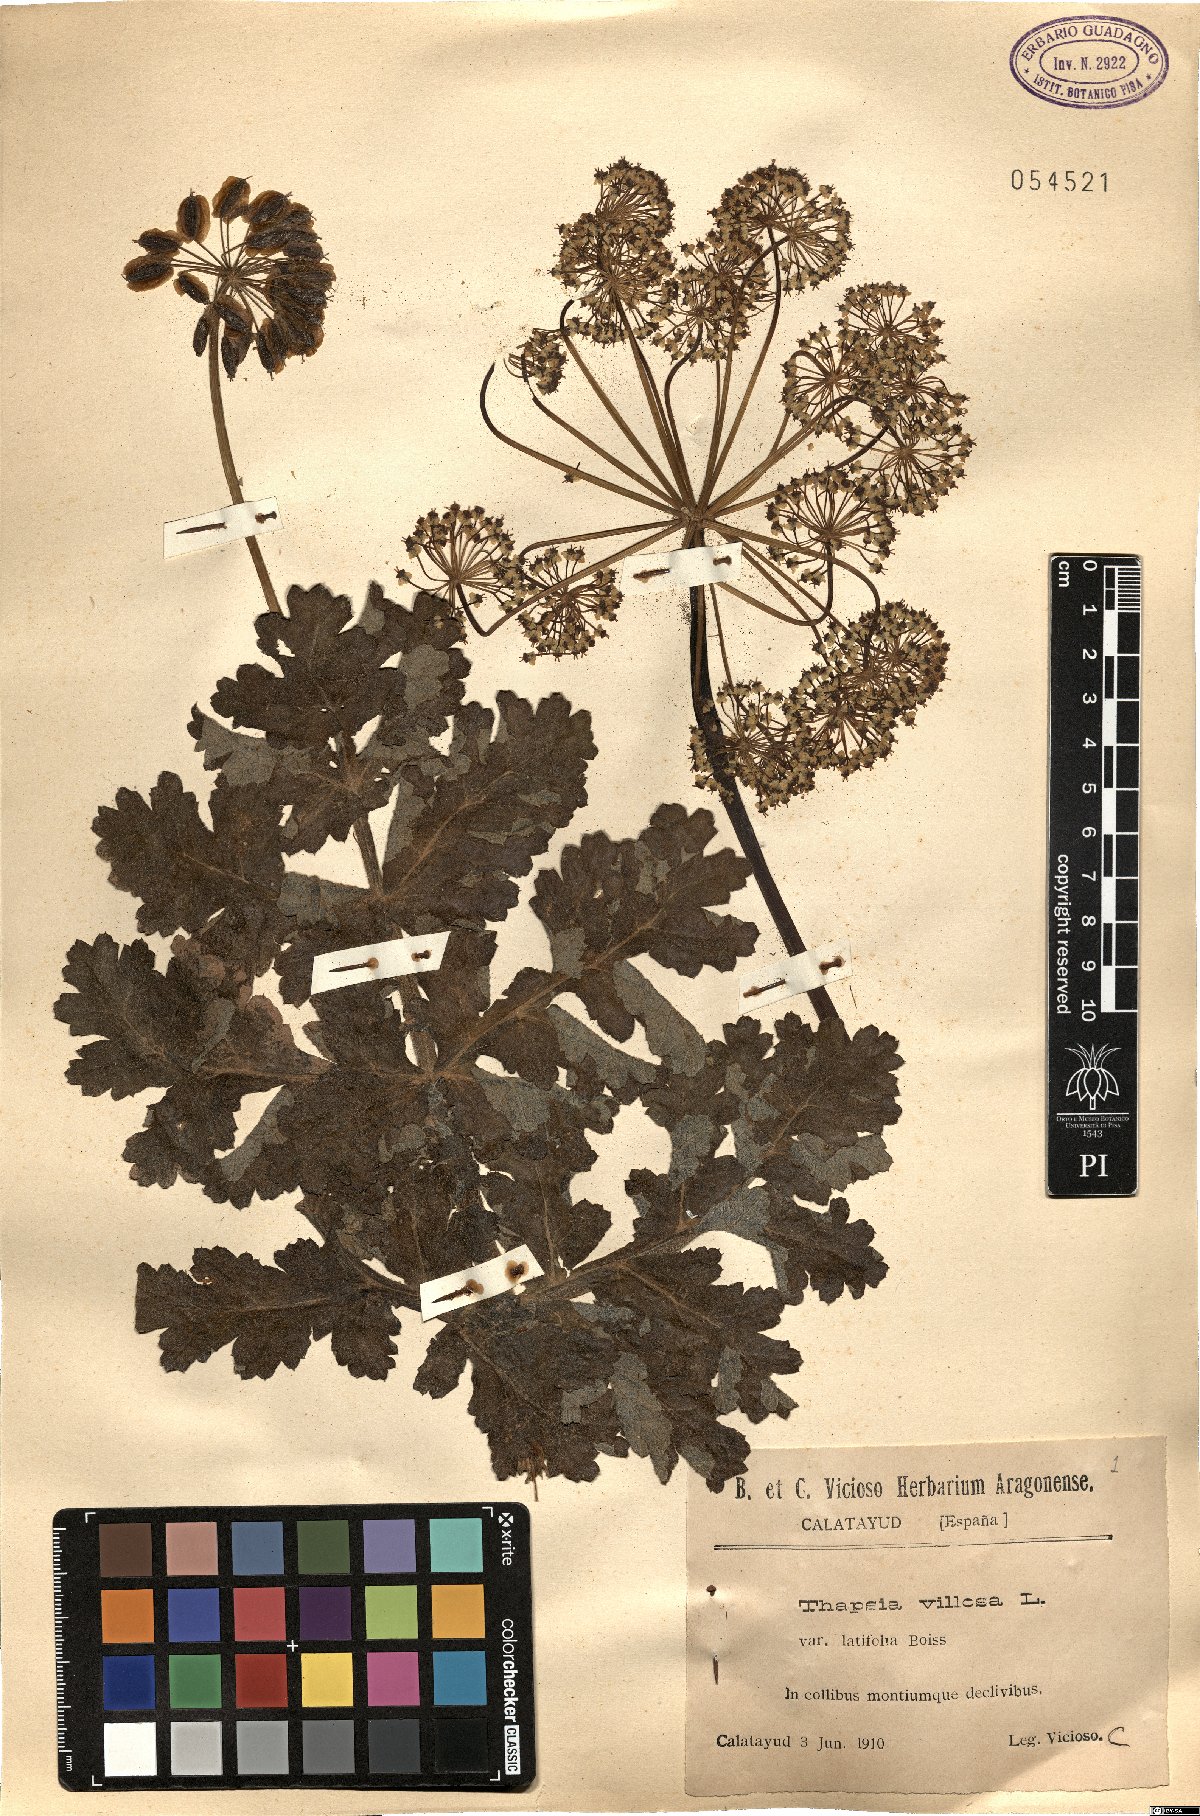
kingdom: Plantae
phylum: Tracheophyta
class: Magnoliopsida
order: Apiales
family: Apiaceae
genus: Thapsia
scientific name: Thapsia villosa
